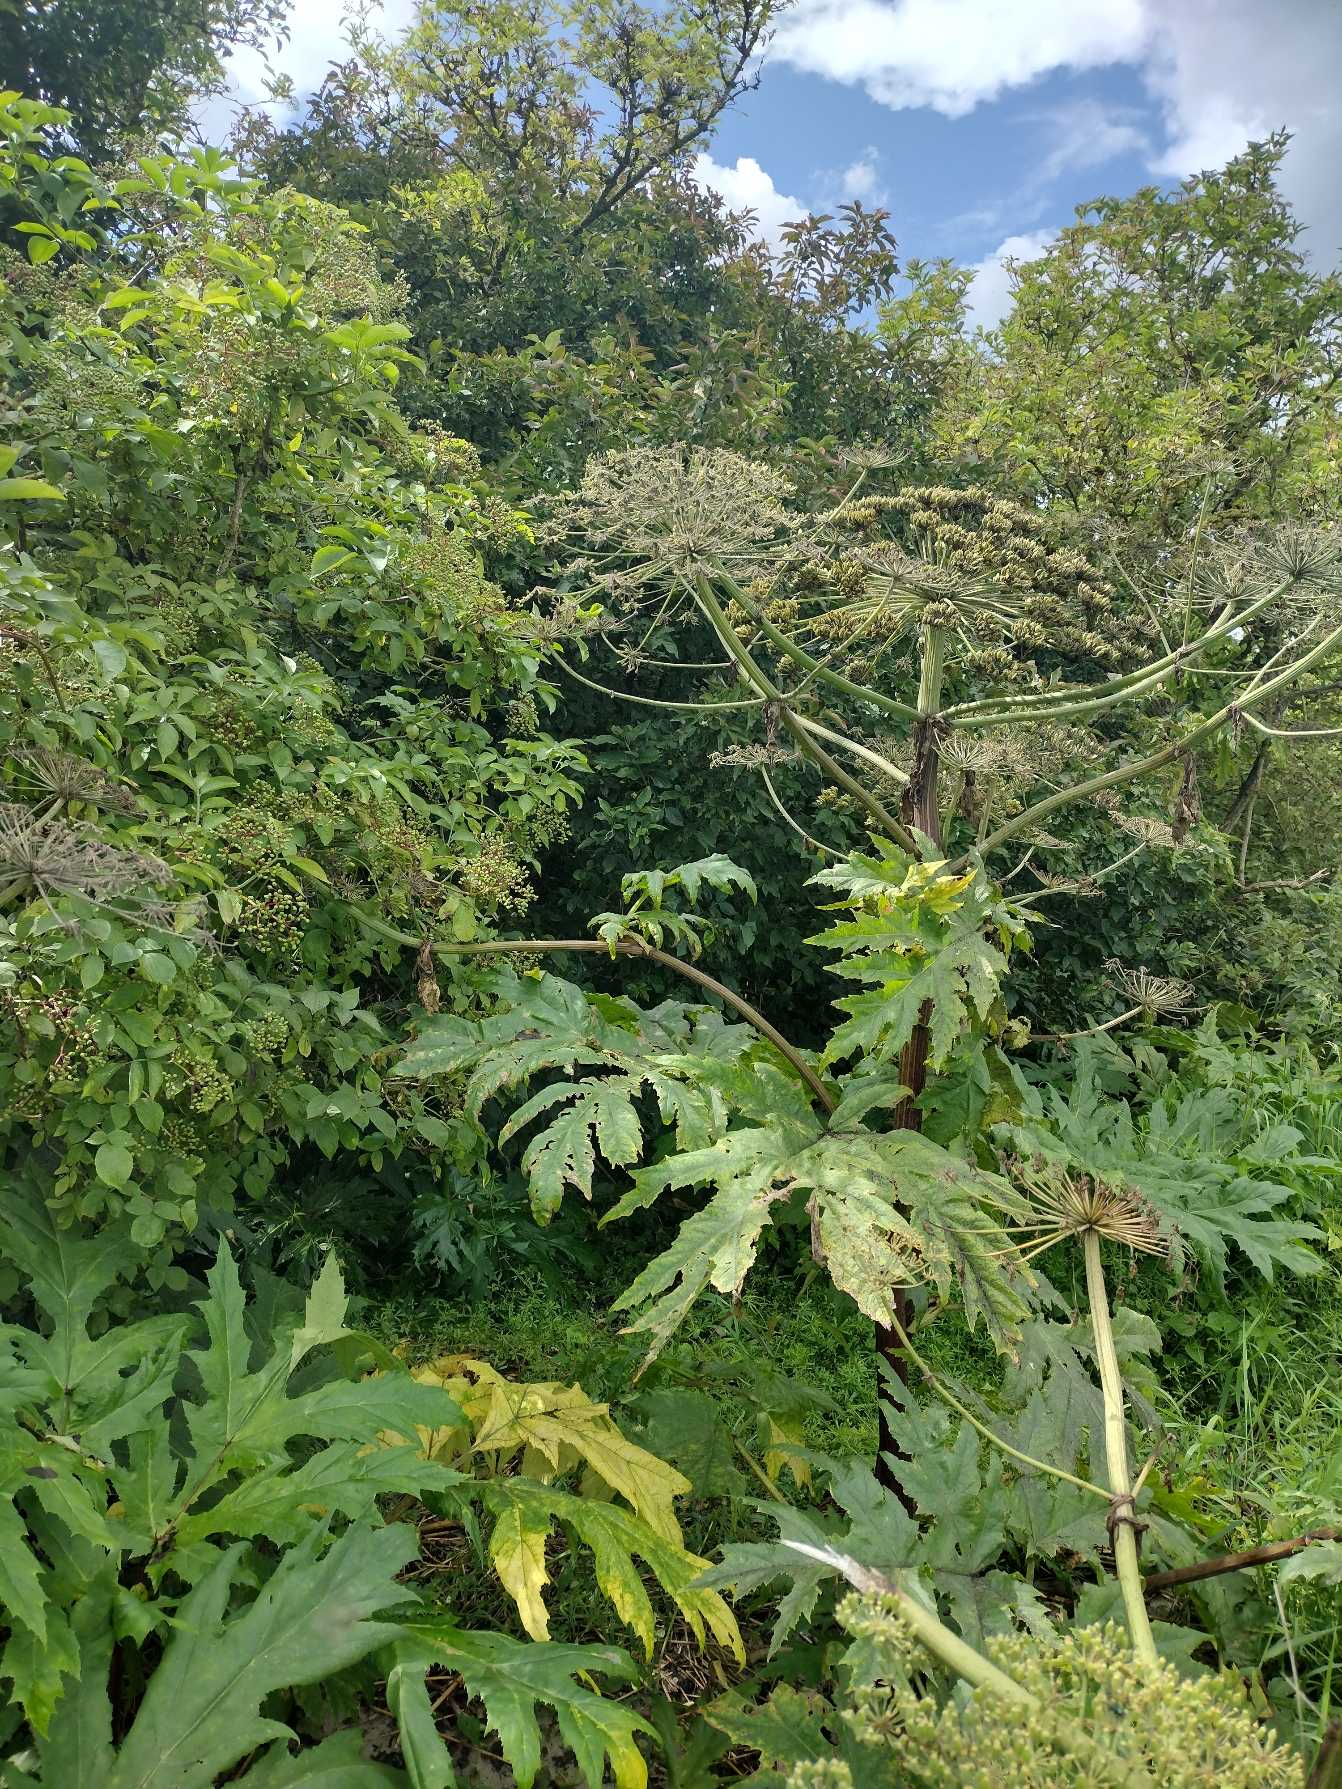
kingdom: Plantae
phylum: Tracheophyta
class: Magnoliopsida
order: Apiales
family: Apiaceae
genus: Heracleum
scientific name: Heracleum mantegazzianum
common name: Kæmpe-bjørneklo
